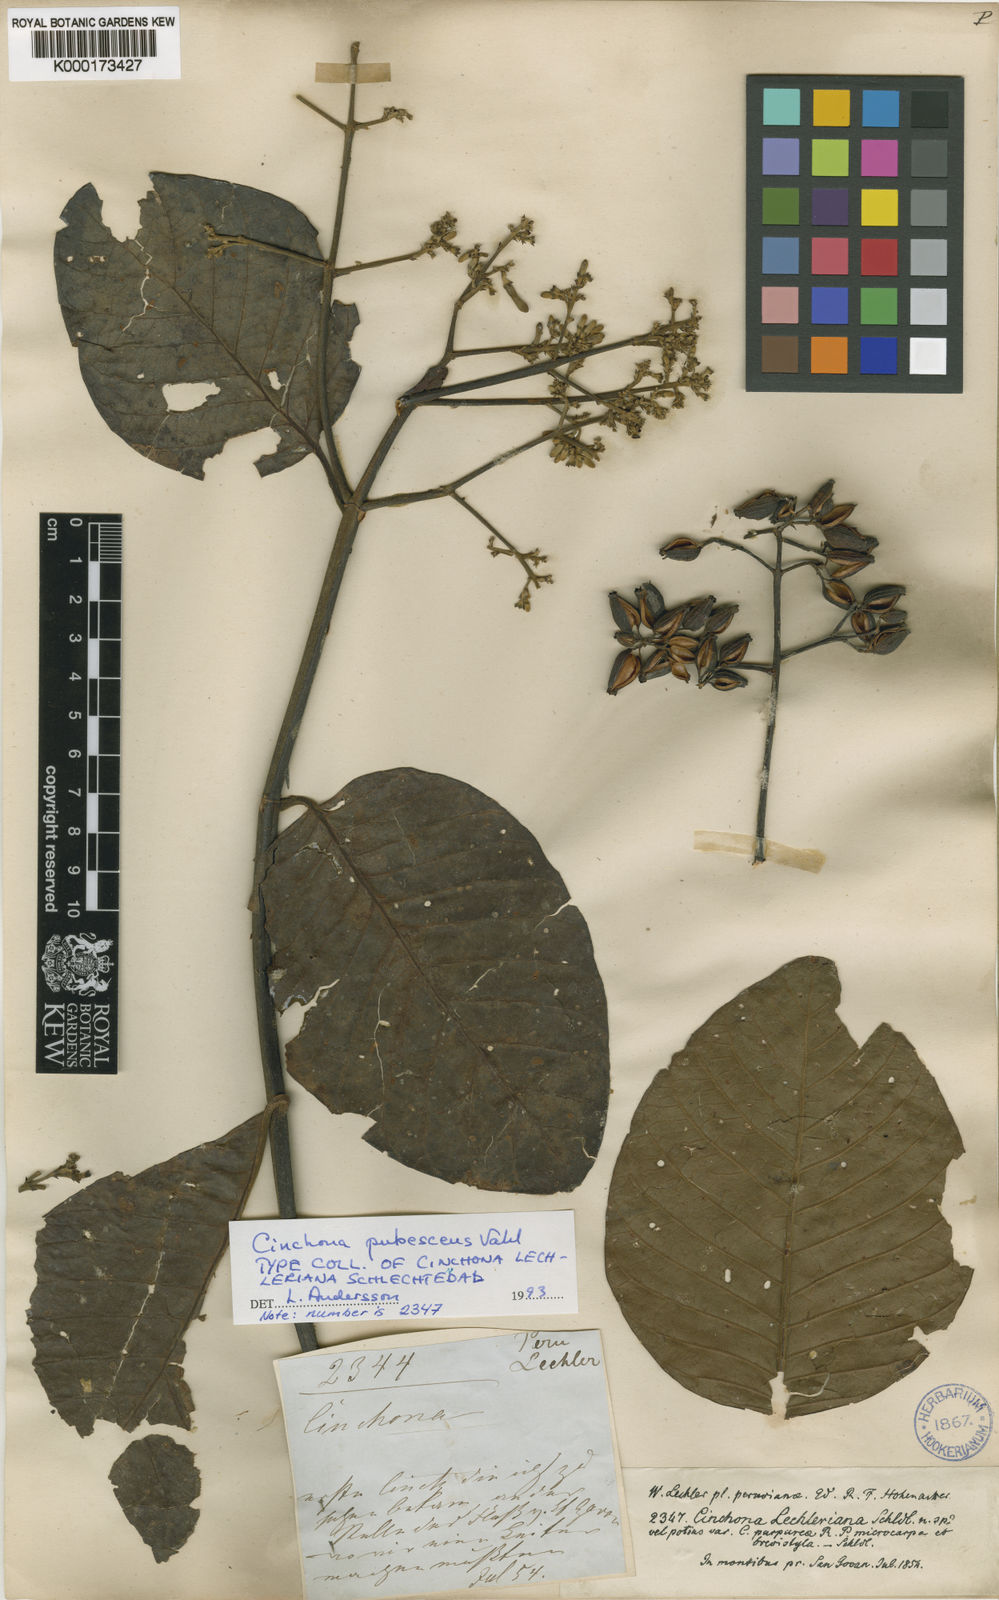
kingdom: Plantae
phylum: Tracheophyta
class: Magnoliopsida
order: Gentianales
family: Rubiaceae
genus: Cinchona
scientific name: Cinchona pubescens
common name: Quinine
